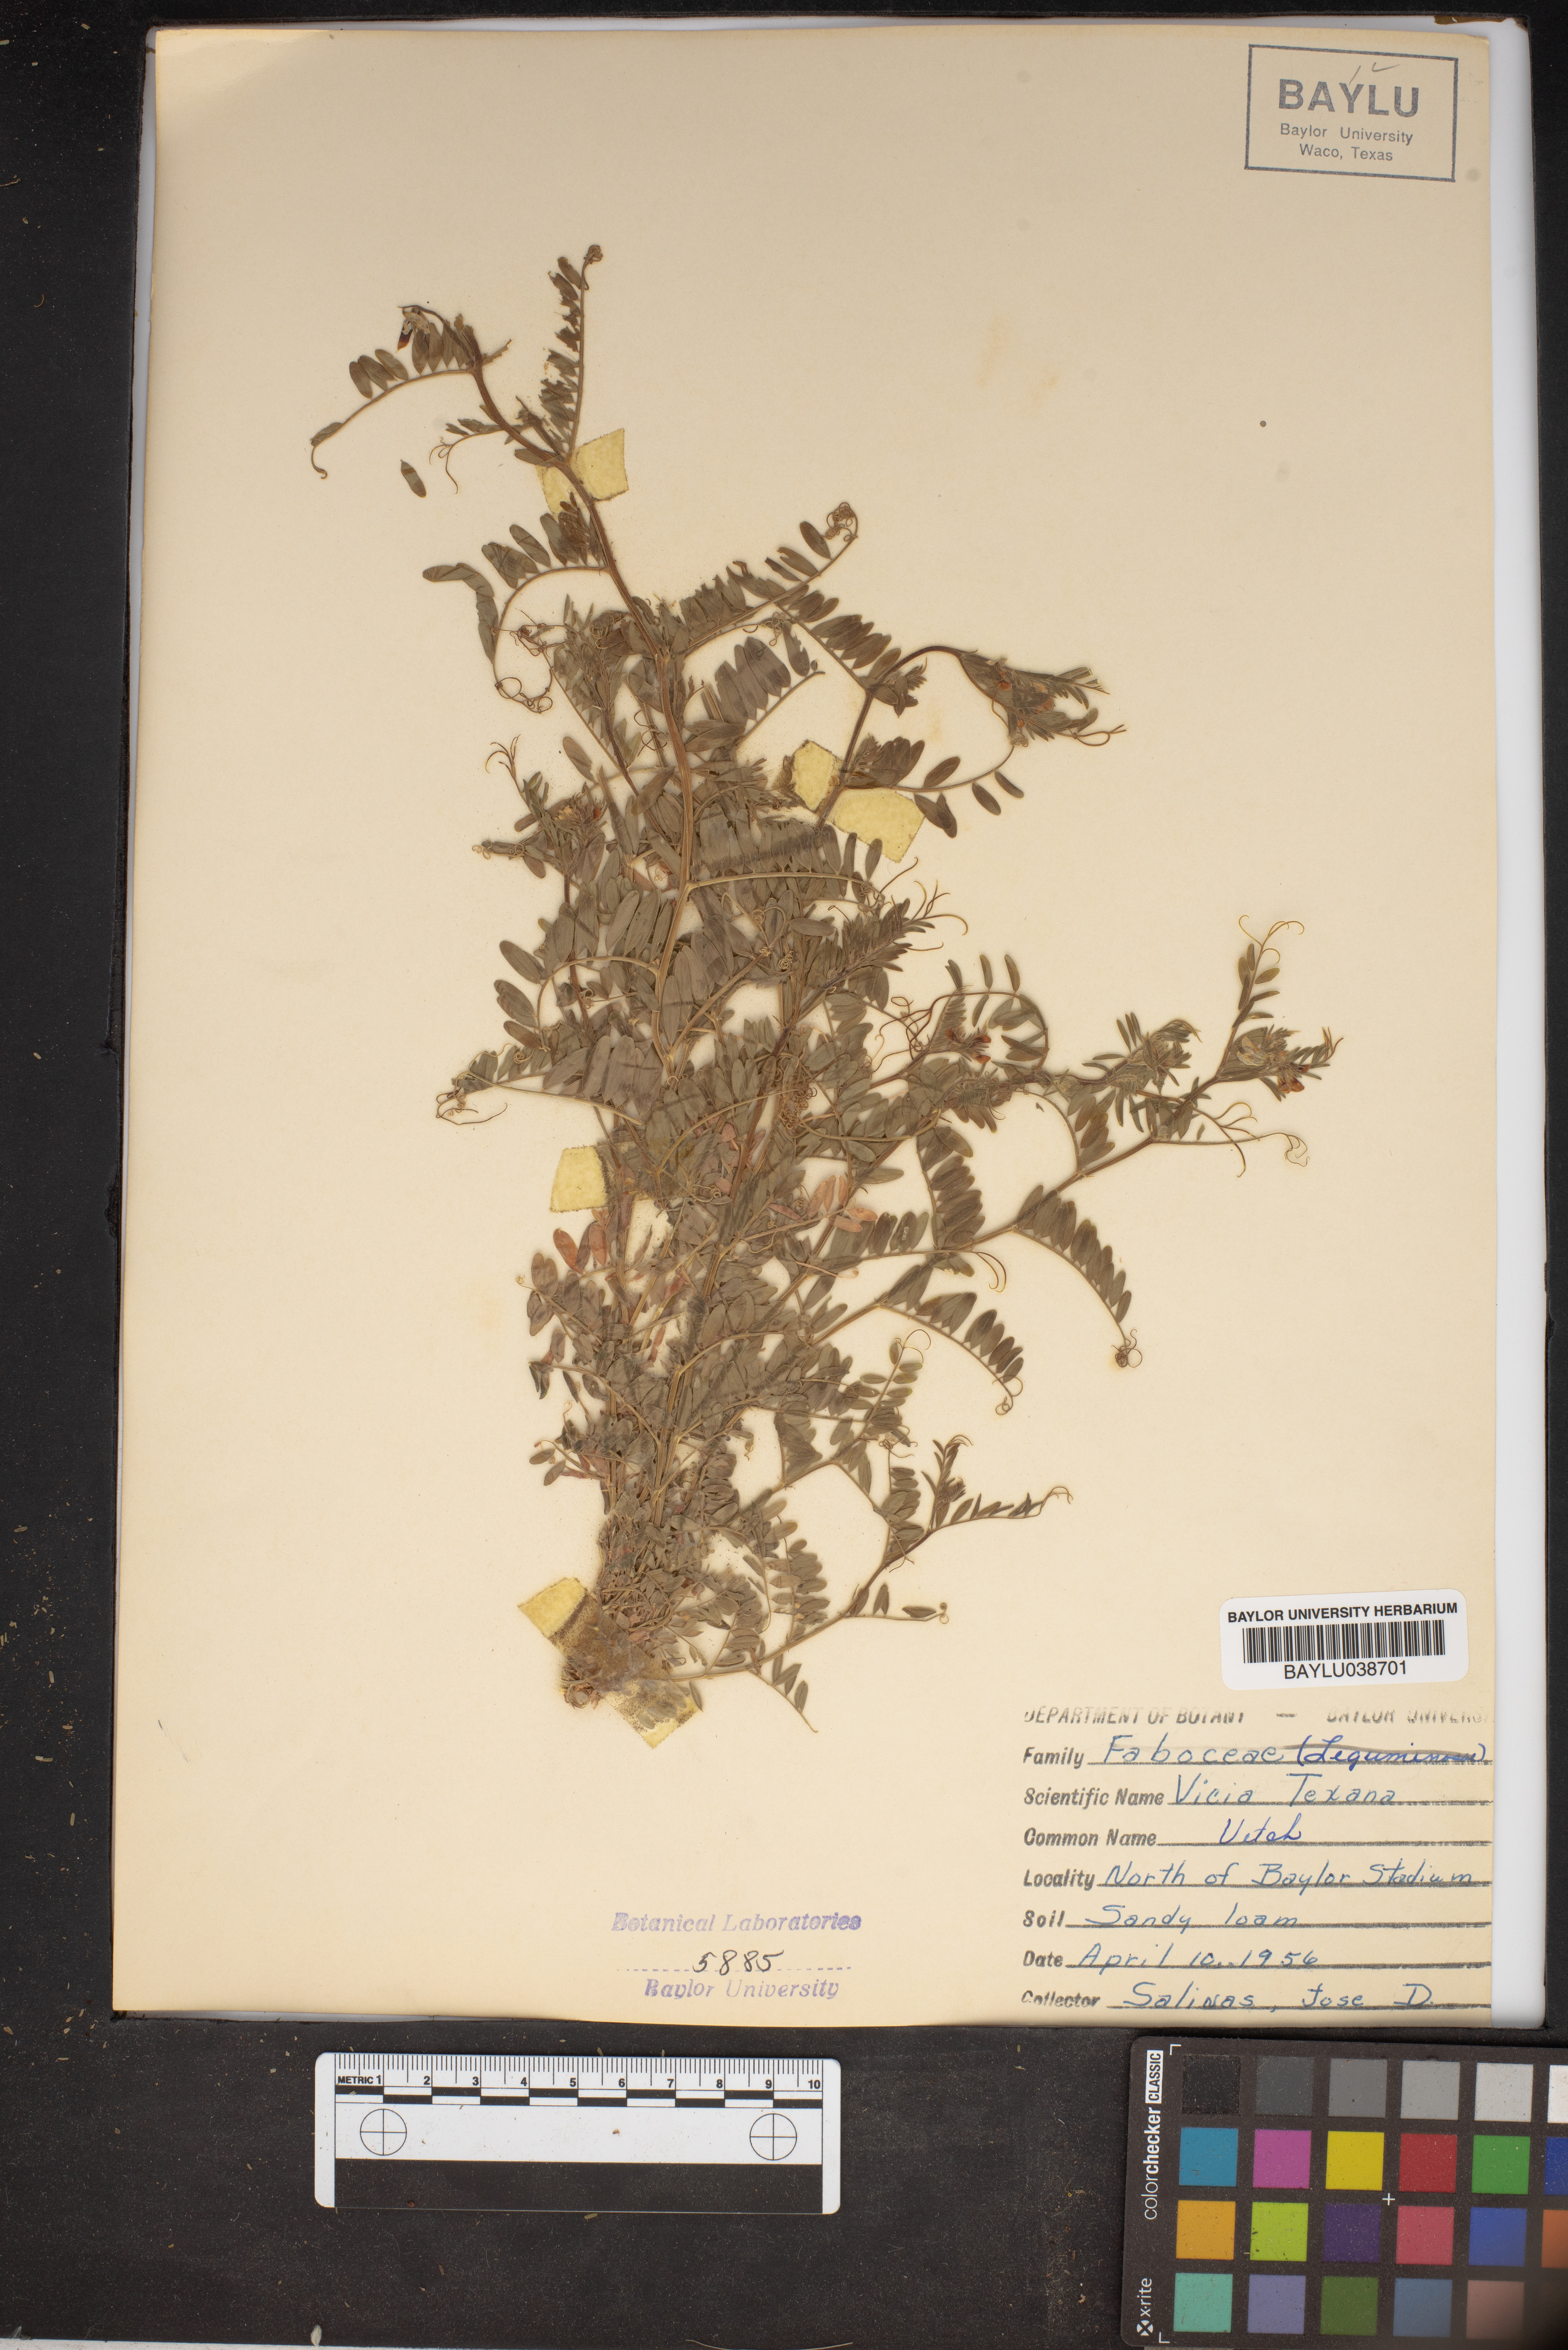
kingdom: Plantae
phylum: Tracheophyta
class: Magnoliopsida
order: Fabales
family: Fabaceae
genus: Vicia
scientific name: Vicia ludoviciana
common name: Louisiana vetch
